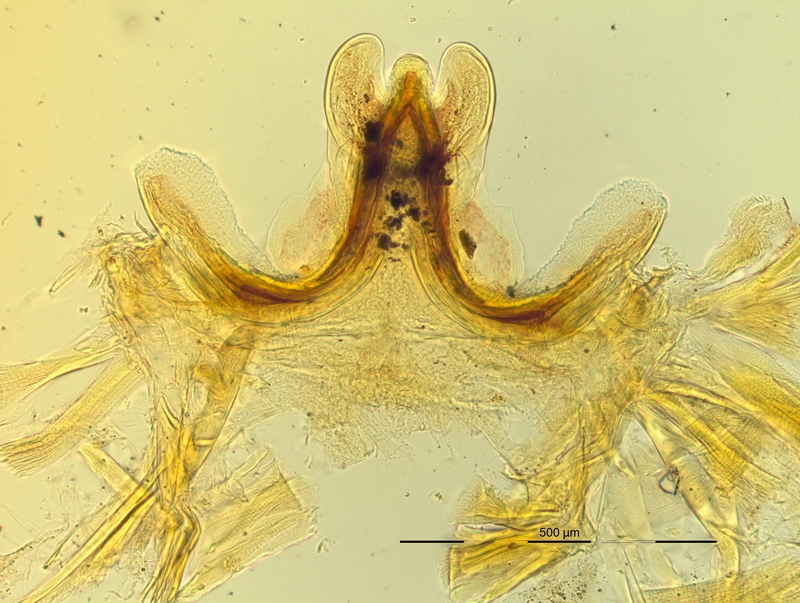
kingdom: Animalia
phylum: Arthropoda
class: Diplopoda
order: Chordeumatida
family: Craspedosomatidae
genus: Pyrgocyphosoma
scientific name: Pyrgocyphosoma brembanum
